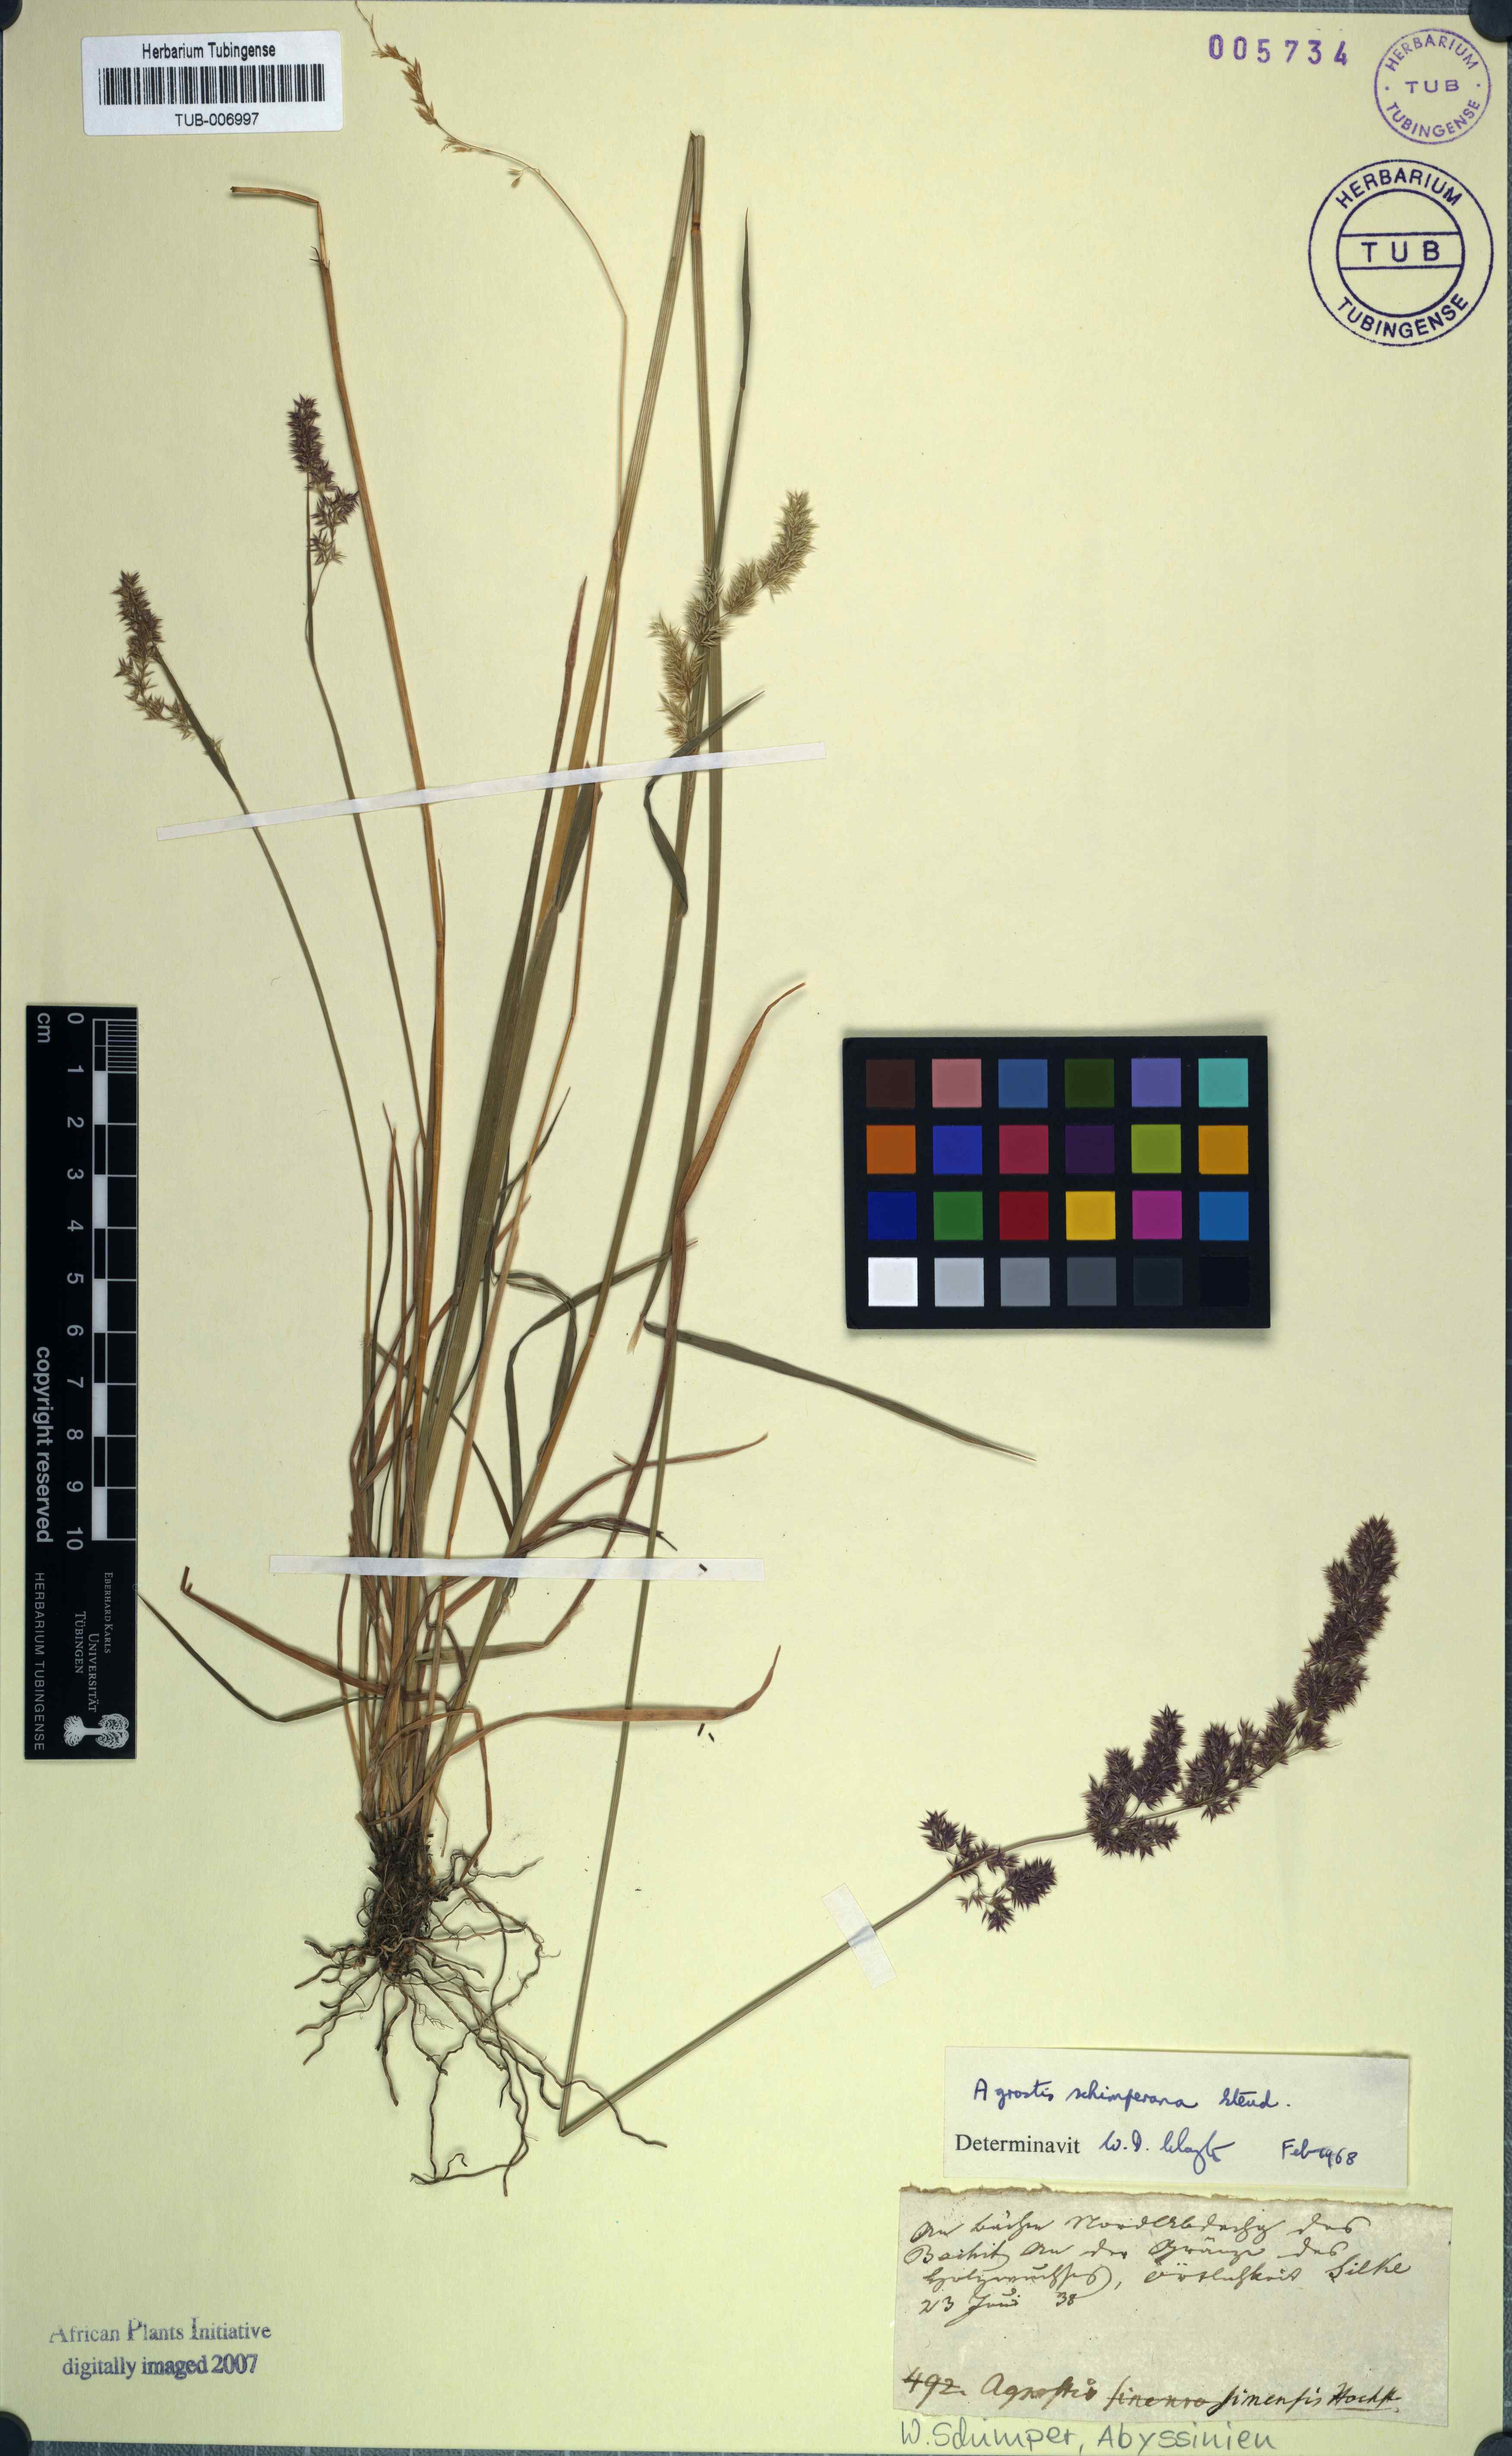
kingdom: Plantae
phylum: Tracheophyta
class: Liliopsida
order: Poales
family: Poaceae
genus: Polypogon
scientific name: Polypogon schimperianus
